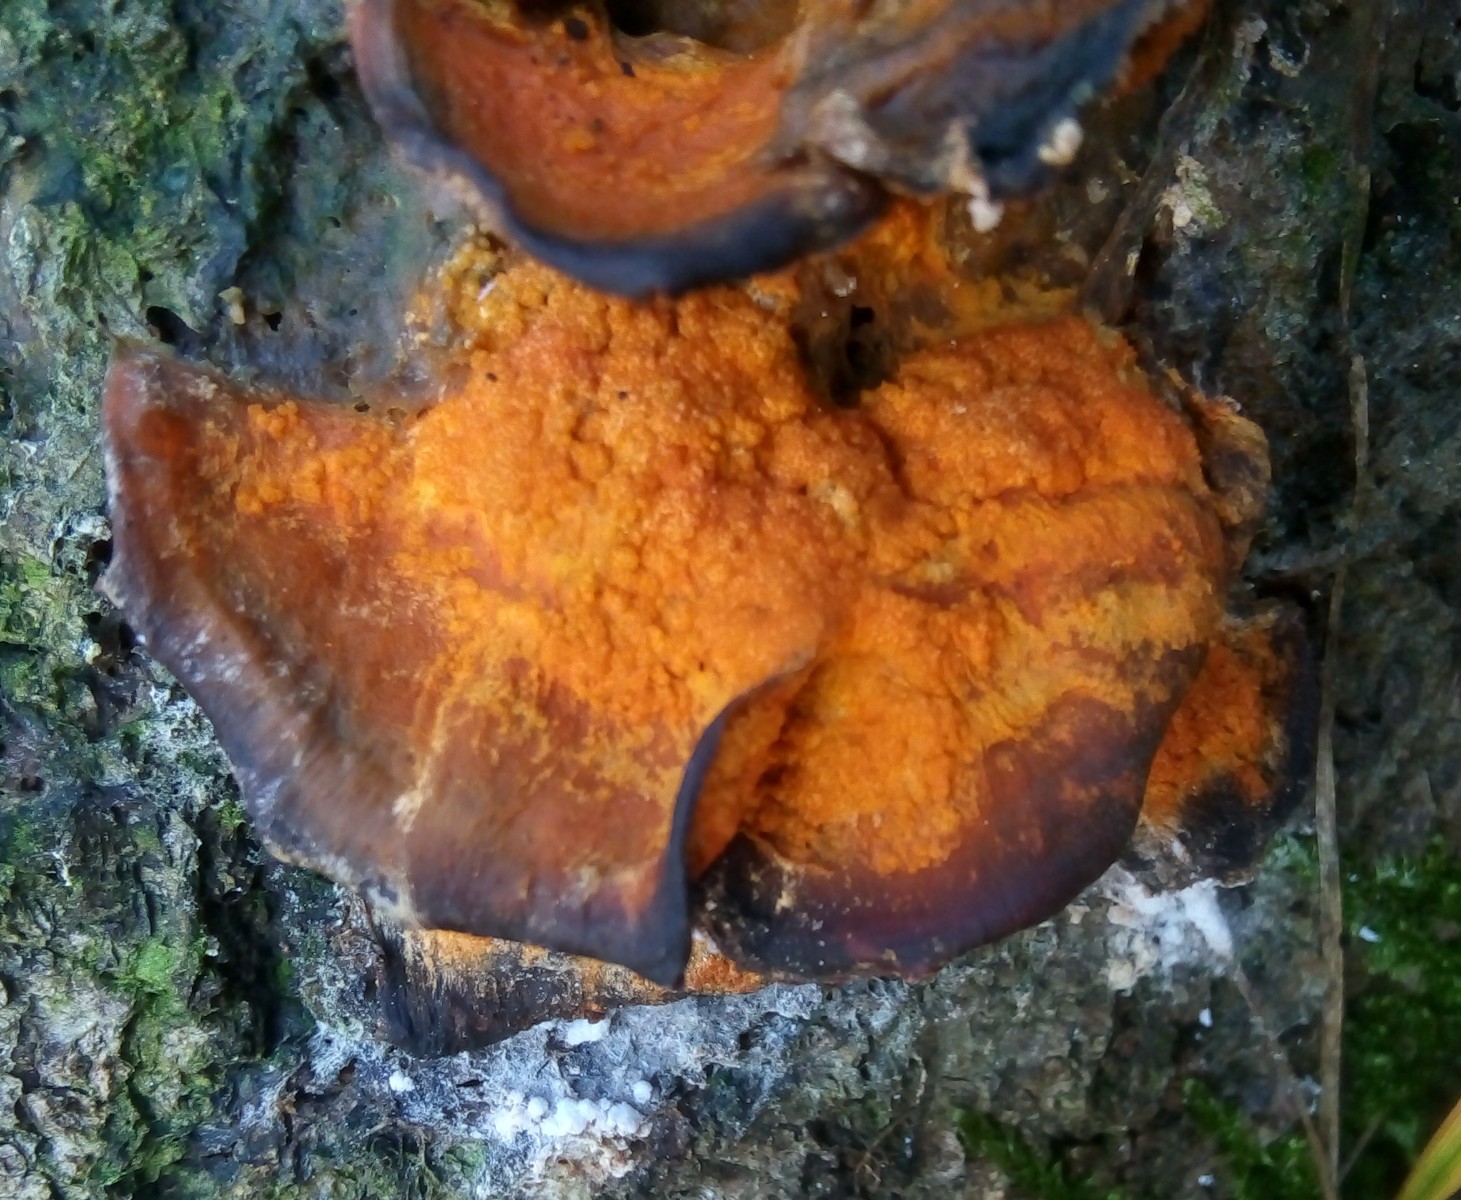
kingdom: Fungi
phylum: Ascomycota
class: Sordariomycetes
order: Hypocreales
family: Hypocreaceae
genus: Hypomyces
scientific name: Hypomyces aurantius
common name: almindelig snylteskorpe
